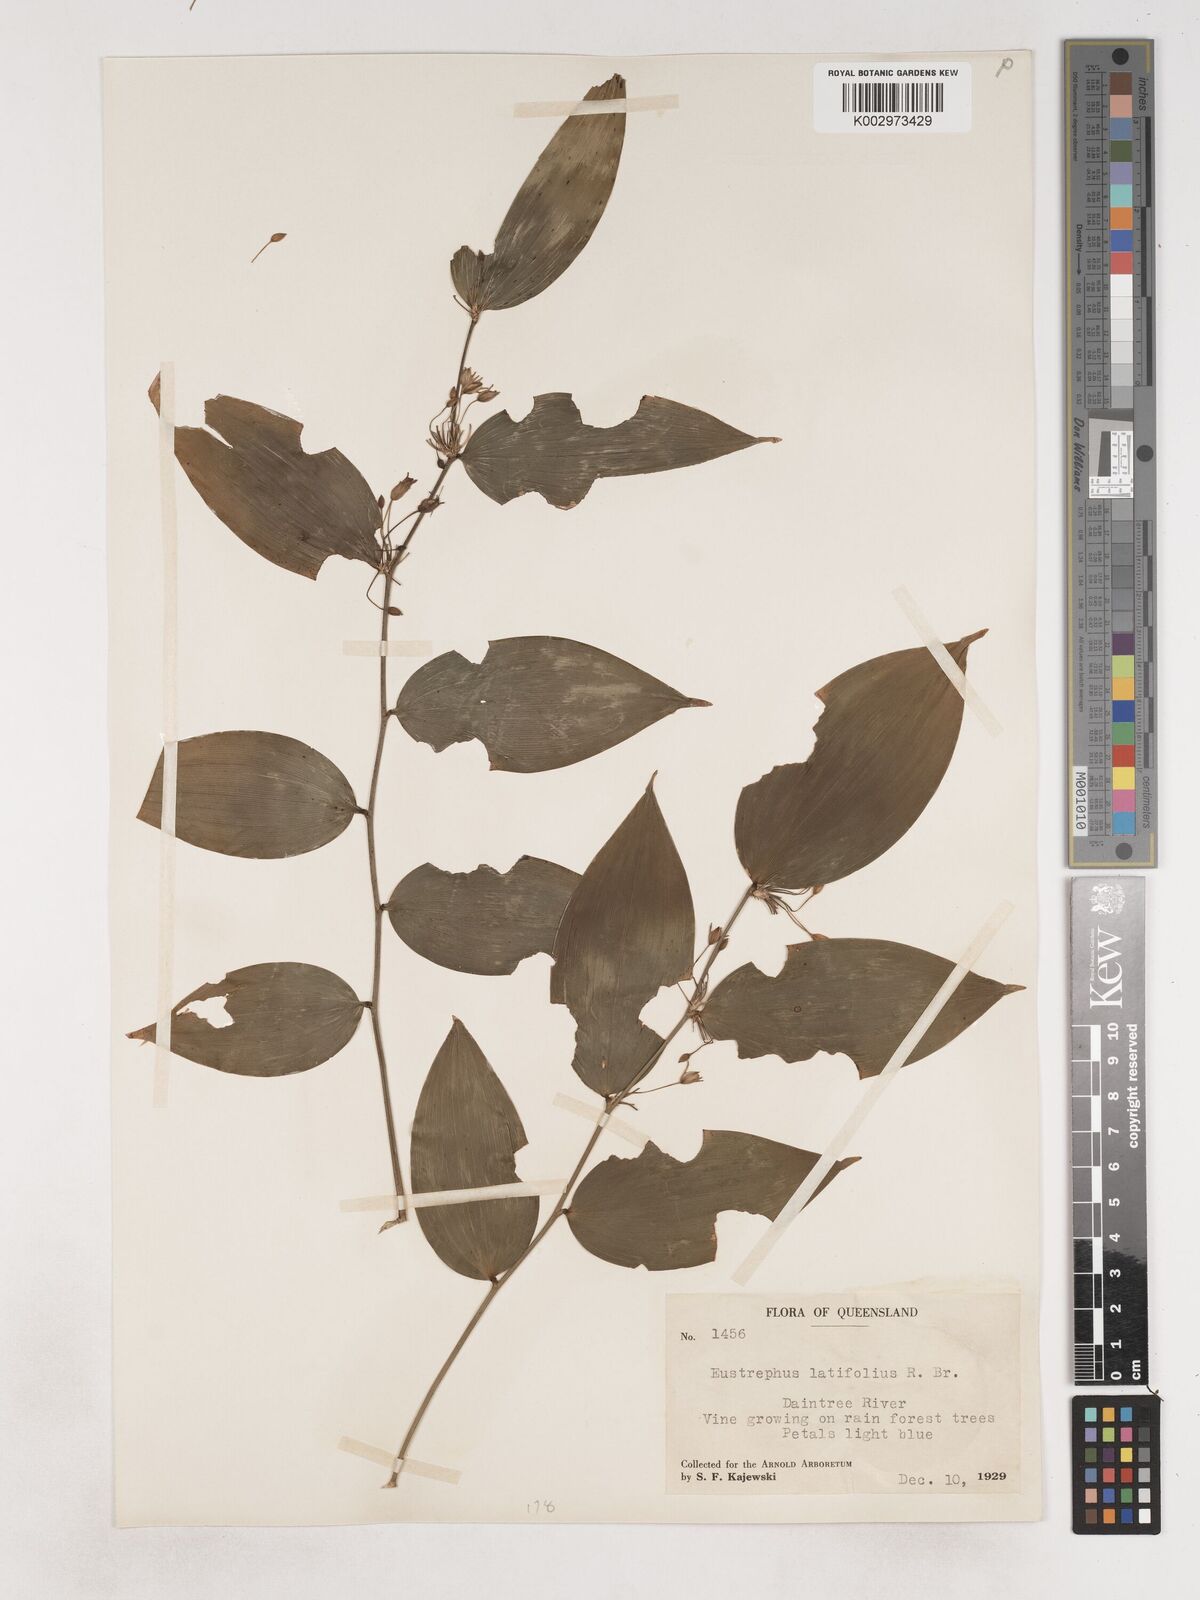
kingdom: Plantae
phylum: Tracheophyta
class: Liliopsida
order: Asparagales
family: Asparagaceae
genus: Eustrephus
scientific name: Eustrephus latifolius
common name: Orangevine
